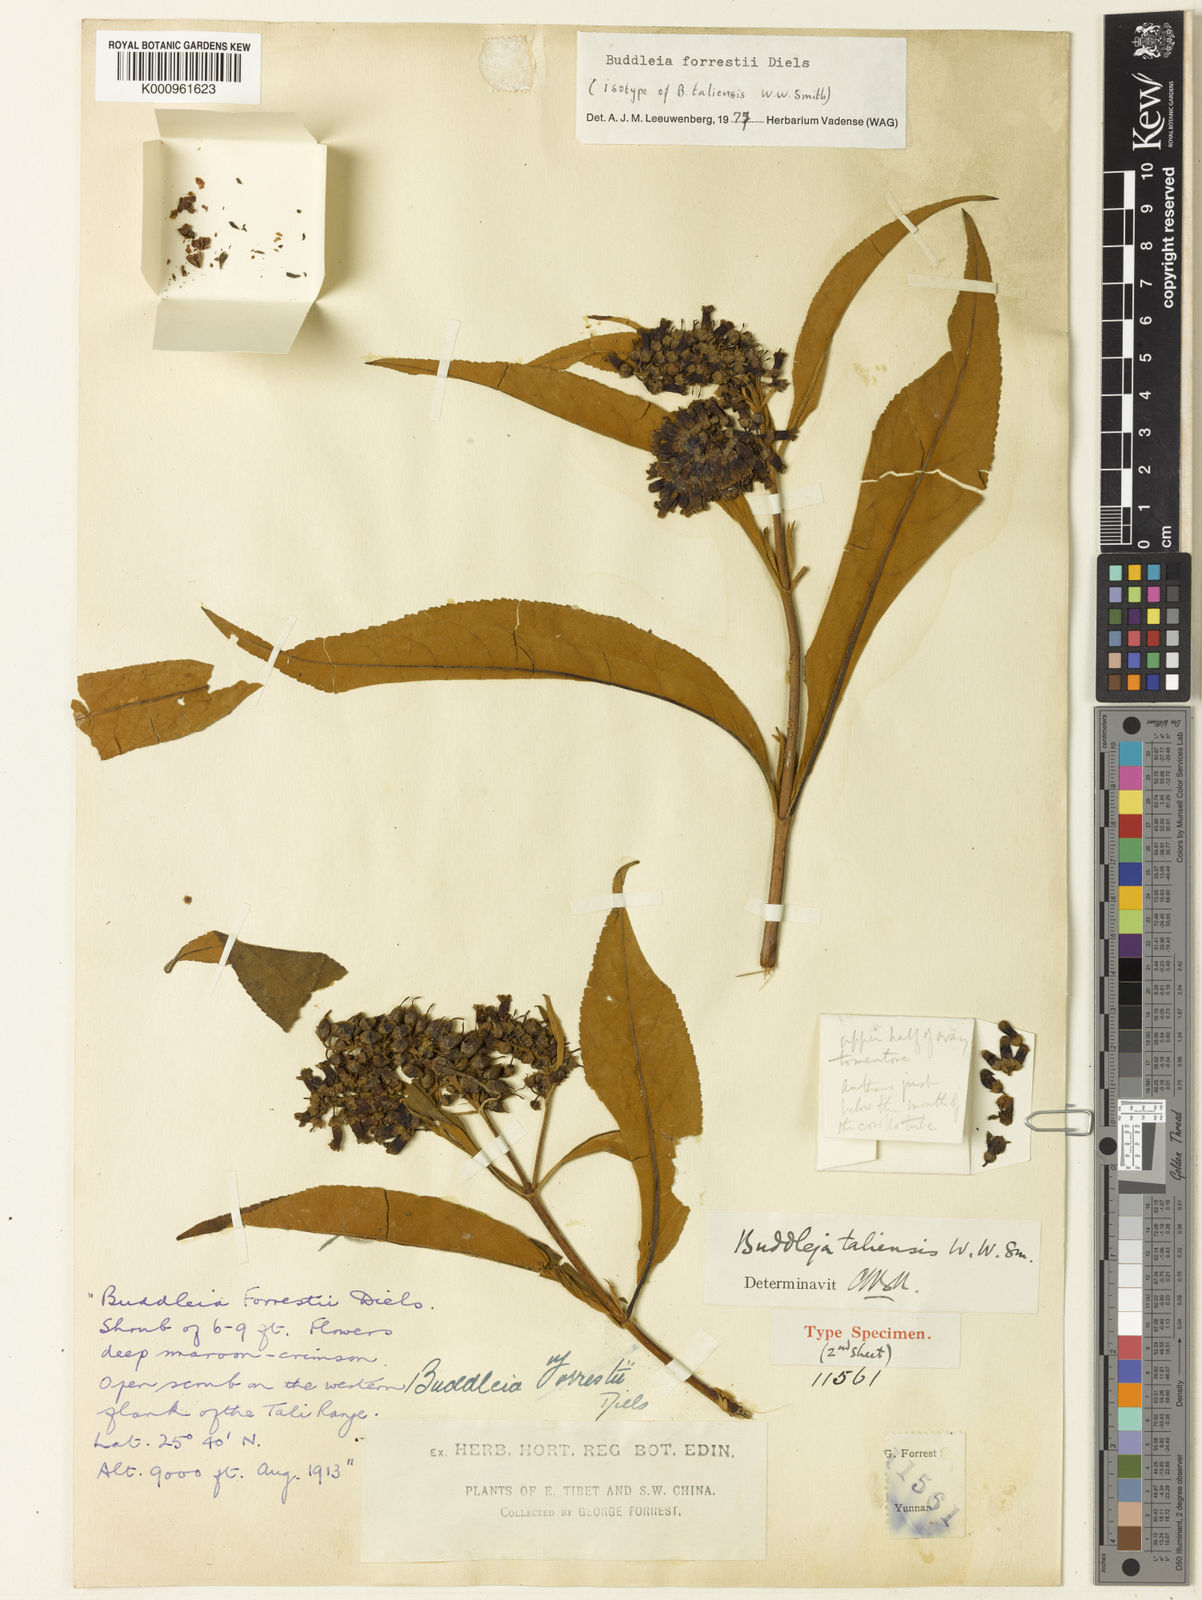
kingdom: Plantae
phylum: Tracheophyta
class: Magnoliopsida
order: Lamiales
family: Scrophulariaceae
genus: Buddleja
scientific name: Buddleja forrestii
